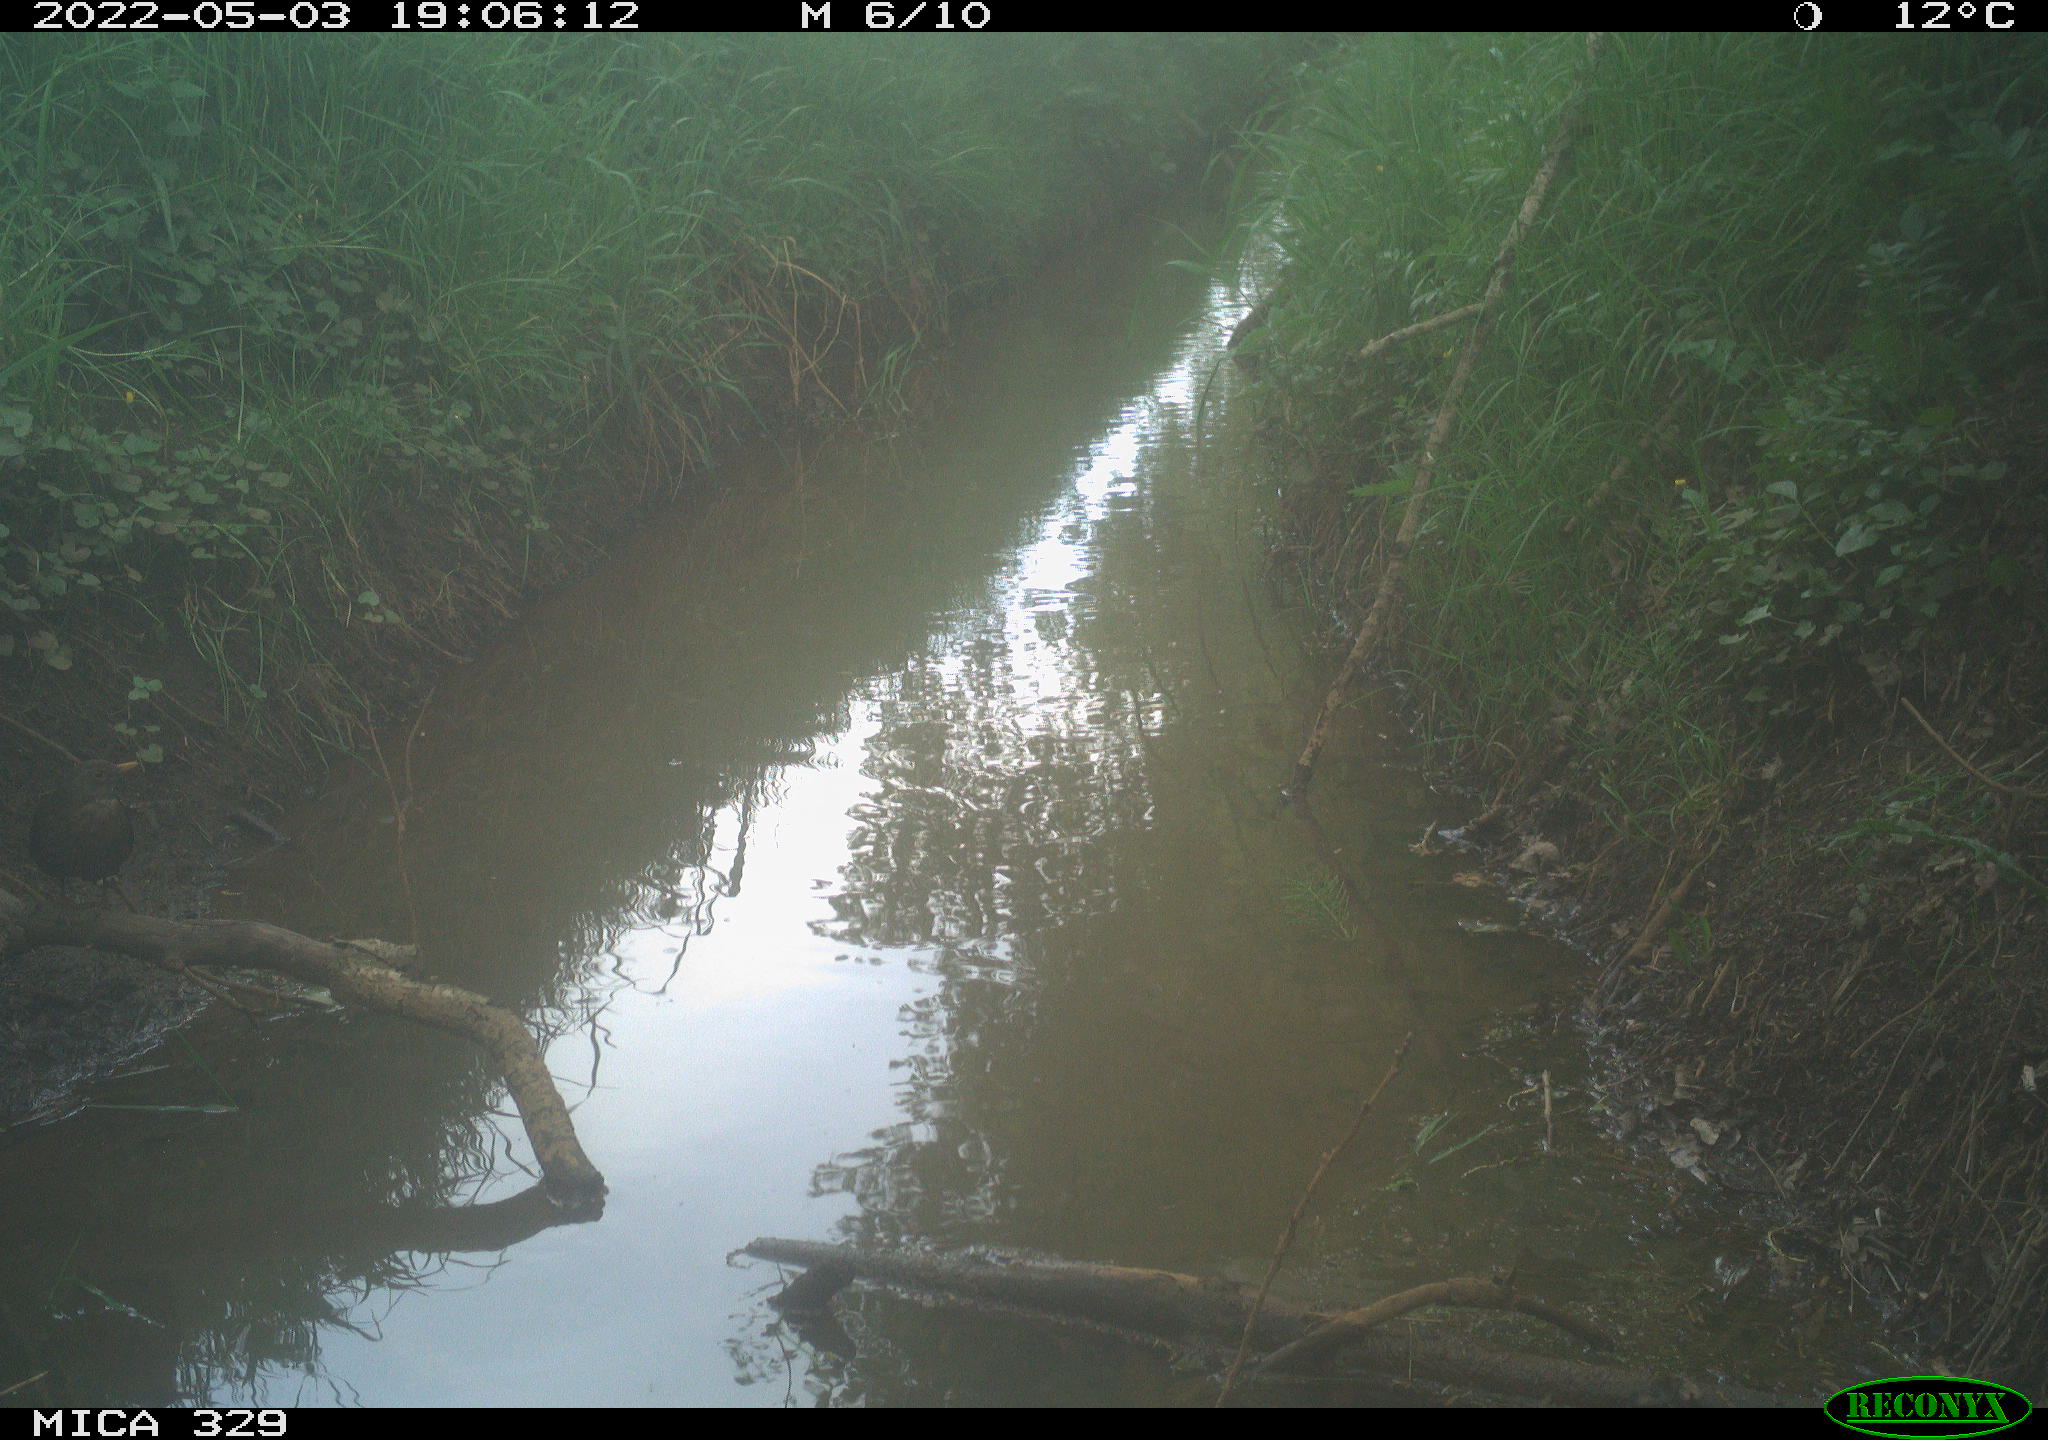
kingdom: Animalia
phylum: Chordata
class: Aves
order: Passeriformes
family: Turdidae
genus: Turdus
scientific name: Turdus merula
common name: Common blackbird
